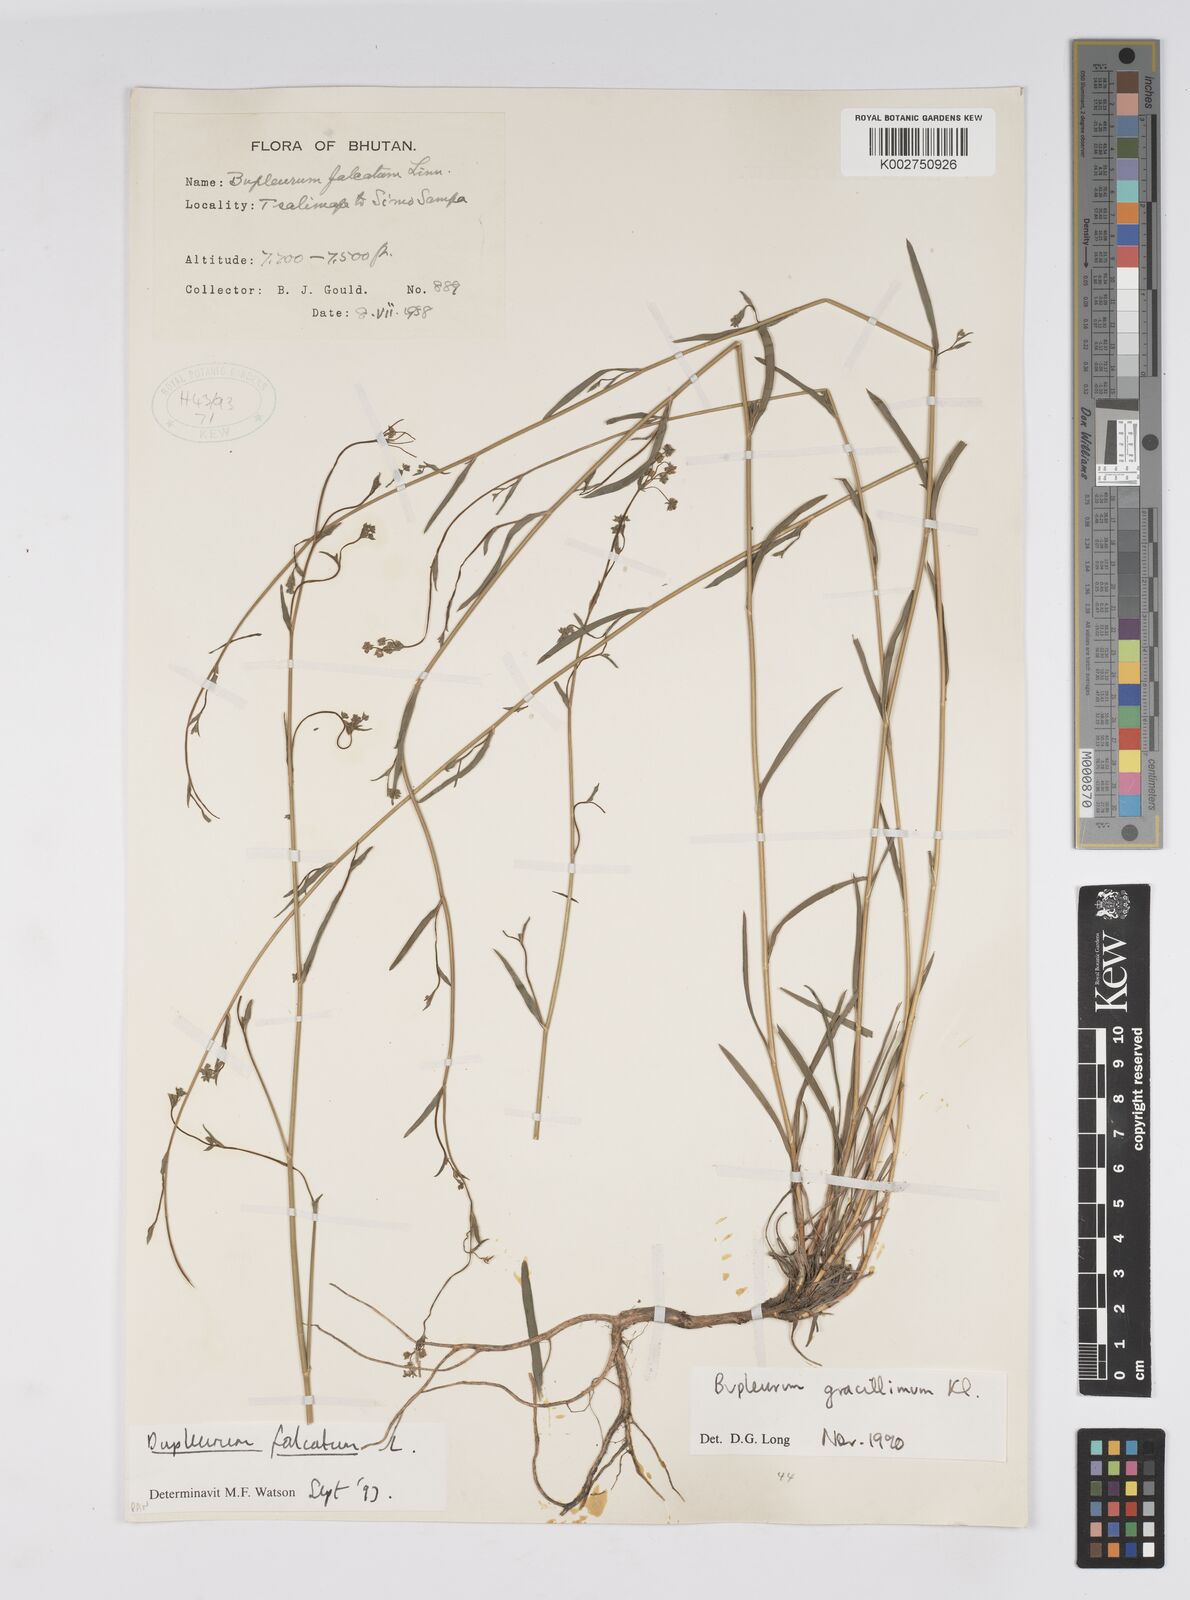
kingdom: Plantae
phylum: Tracheophyta
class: Magnoliopsida
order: Apiales
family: Apiaceae
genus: Bupleurum
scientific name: Bupleurum gracillimum
